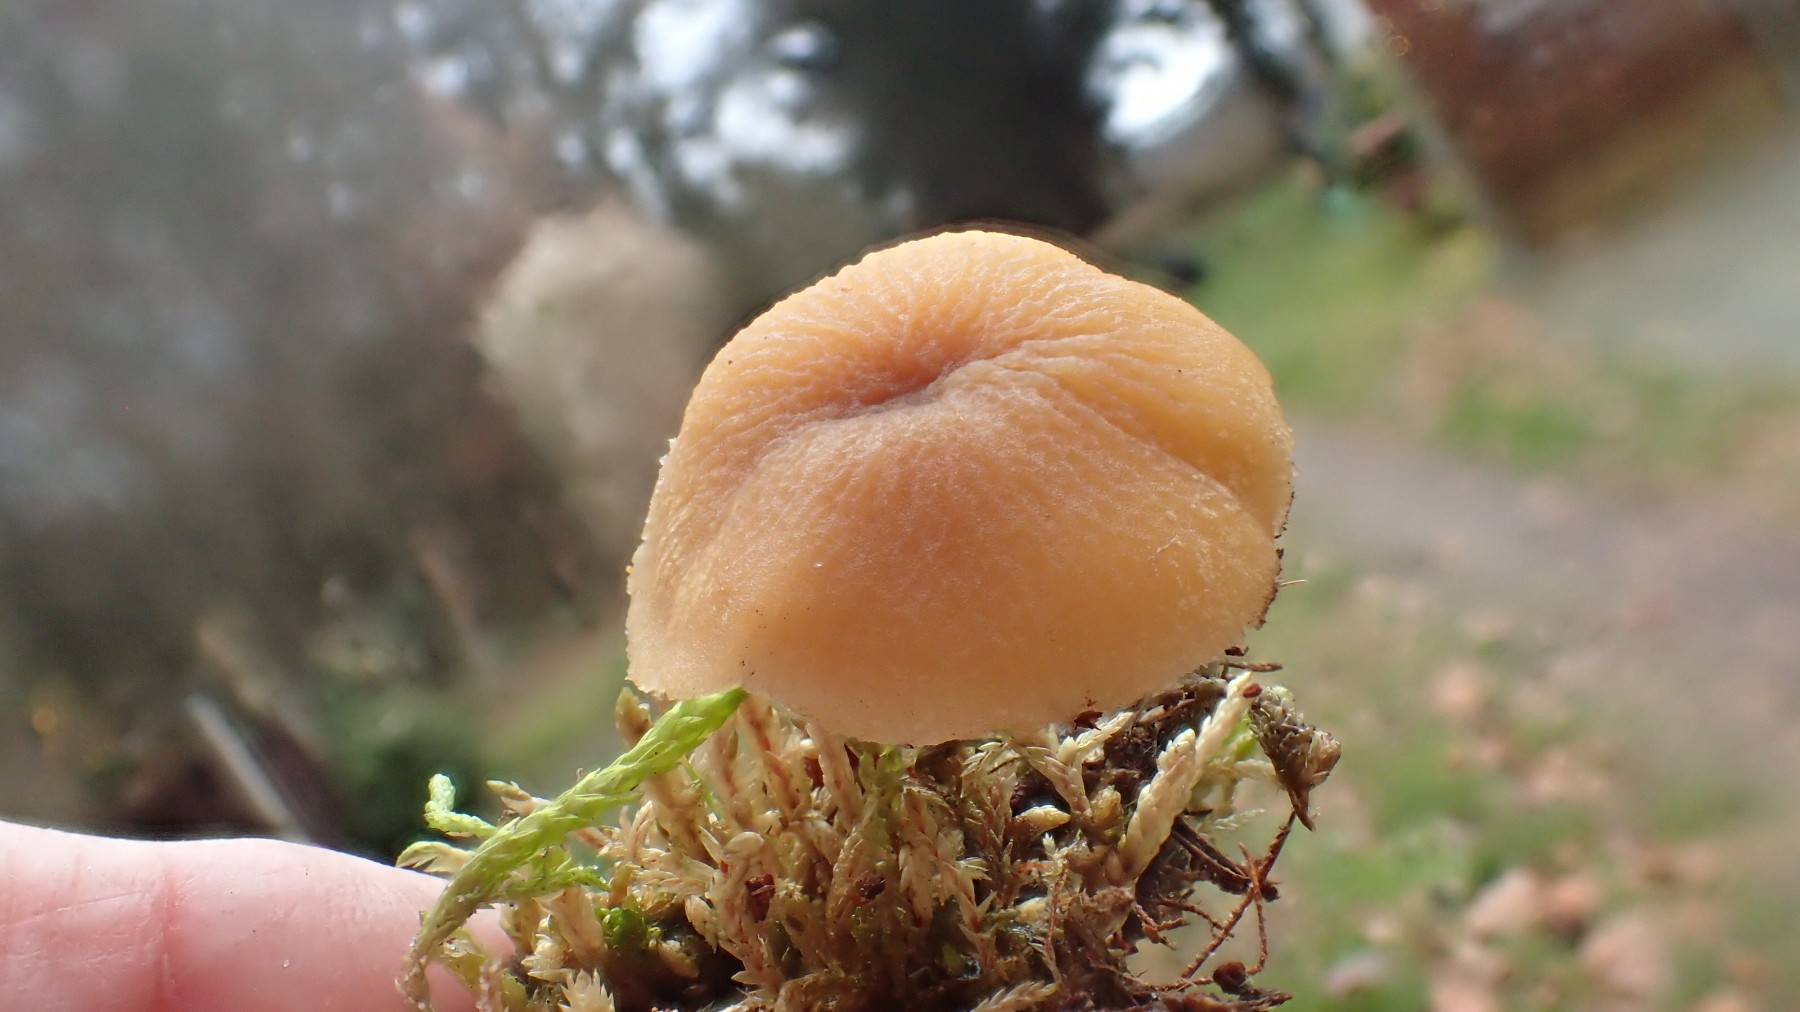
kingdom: Fungi
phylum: Basidiomycota
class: Agaricomycetes
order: Agaricales
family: Tricholomataceae
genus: Cystoderma
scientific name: Cystoderma amianthinum
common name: okkergul grynhat
